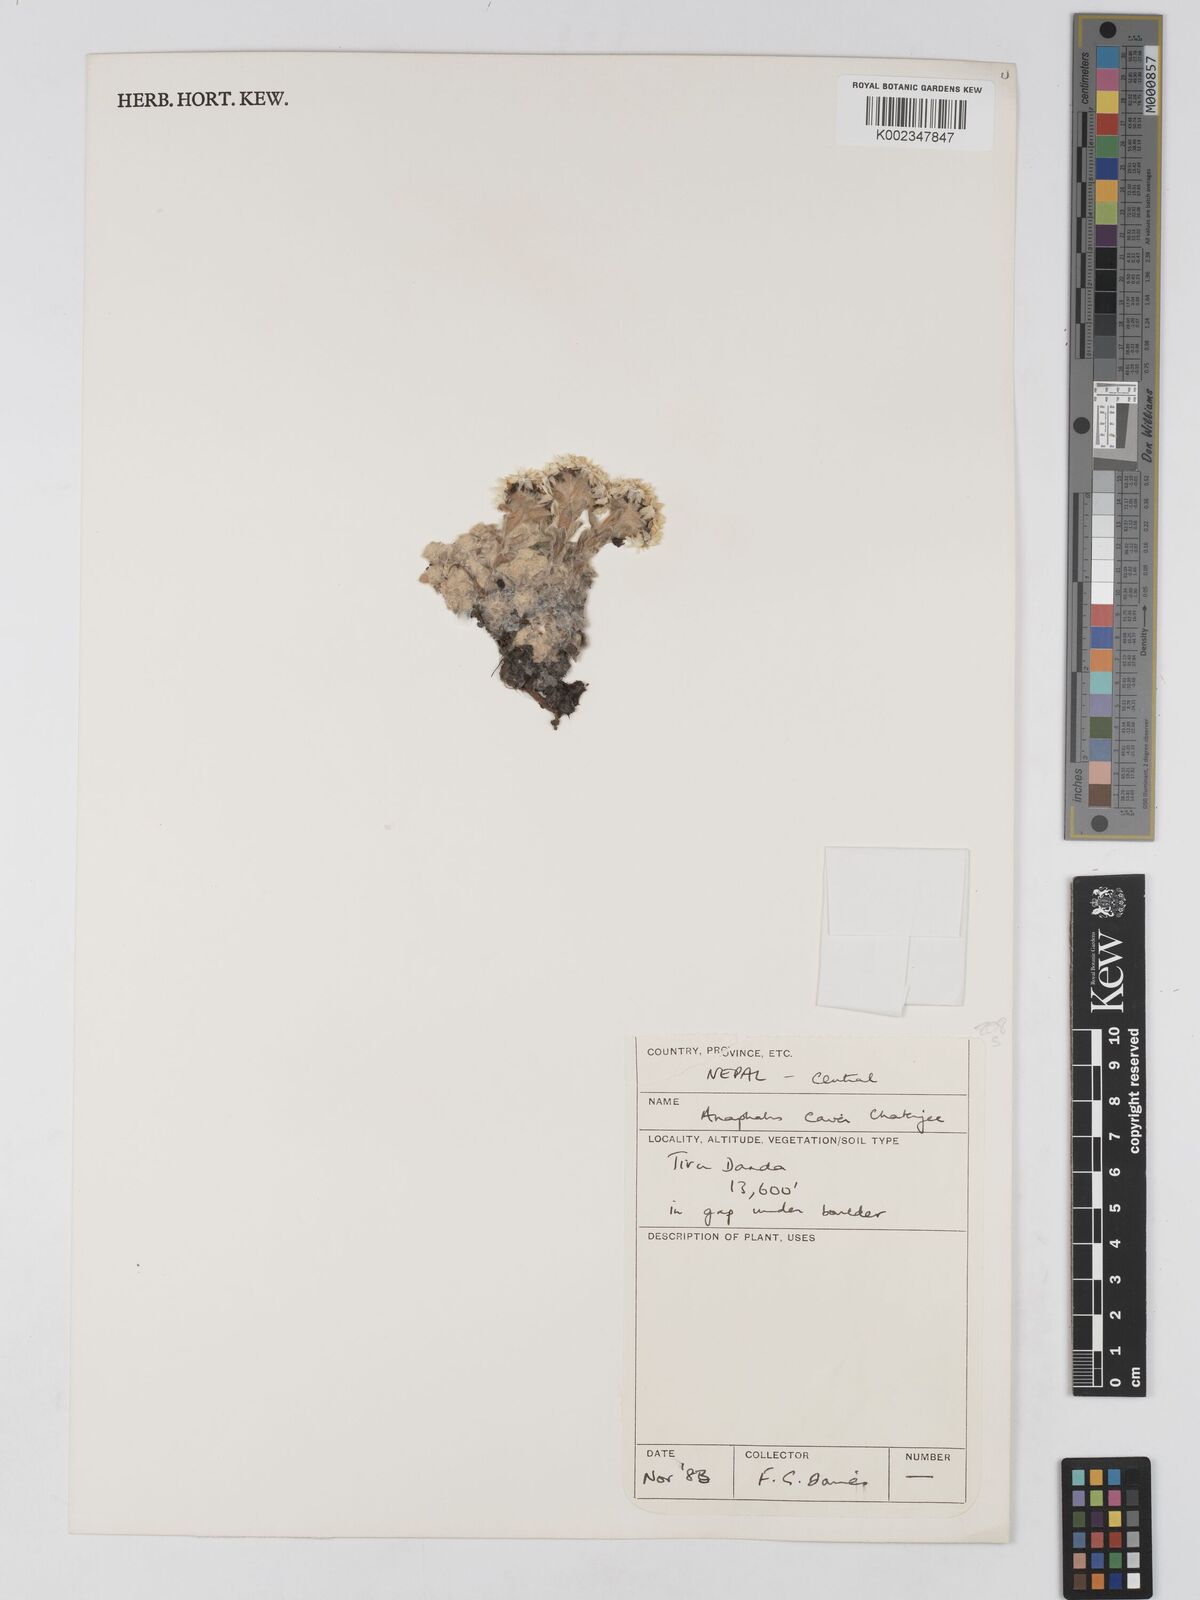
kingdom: Plantae
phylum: Tracheophyta
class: Magnoliopsida
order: Asterales
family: Asteraceae
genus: Anaphalis
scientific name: Anaphalis cavei
